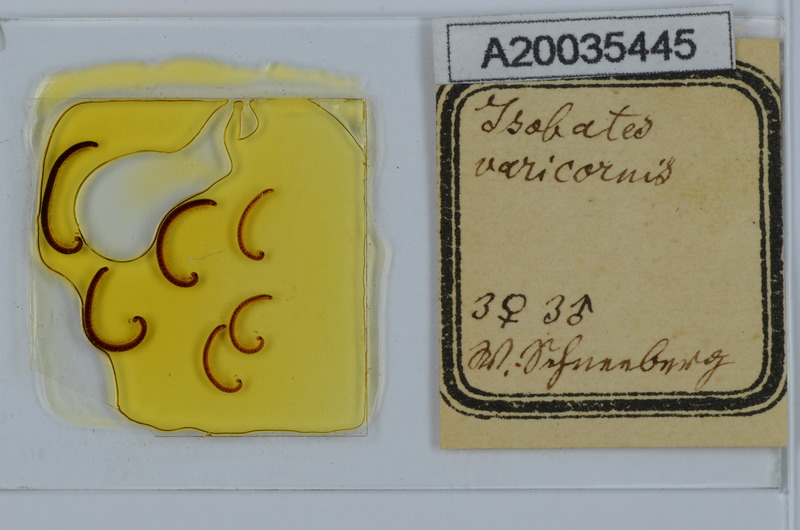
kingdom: Animalia
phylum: Arthropoda
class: Diplopoda
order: Julida
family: Nemasomatidae
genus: Isobates
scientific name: Isobates varicornis
